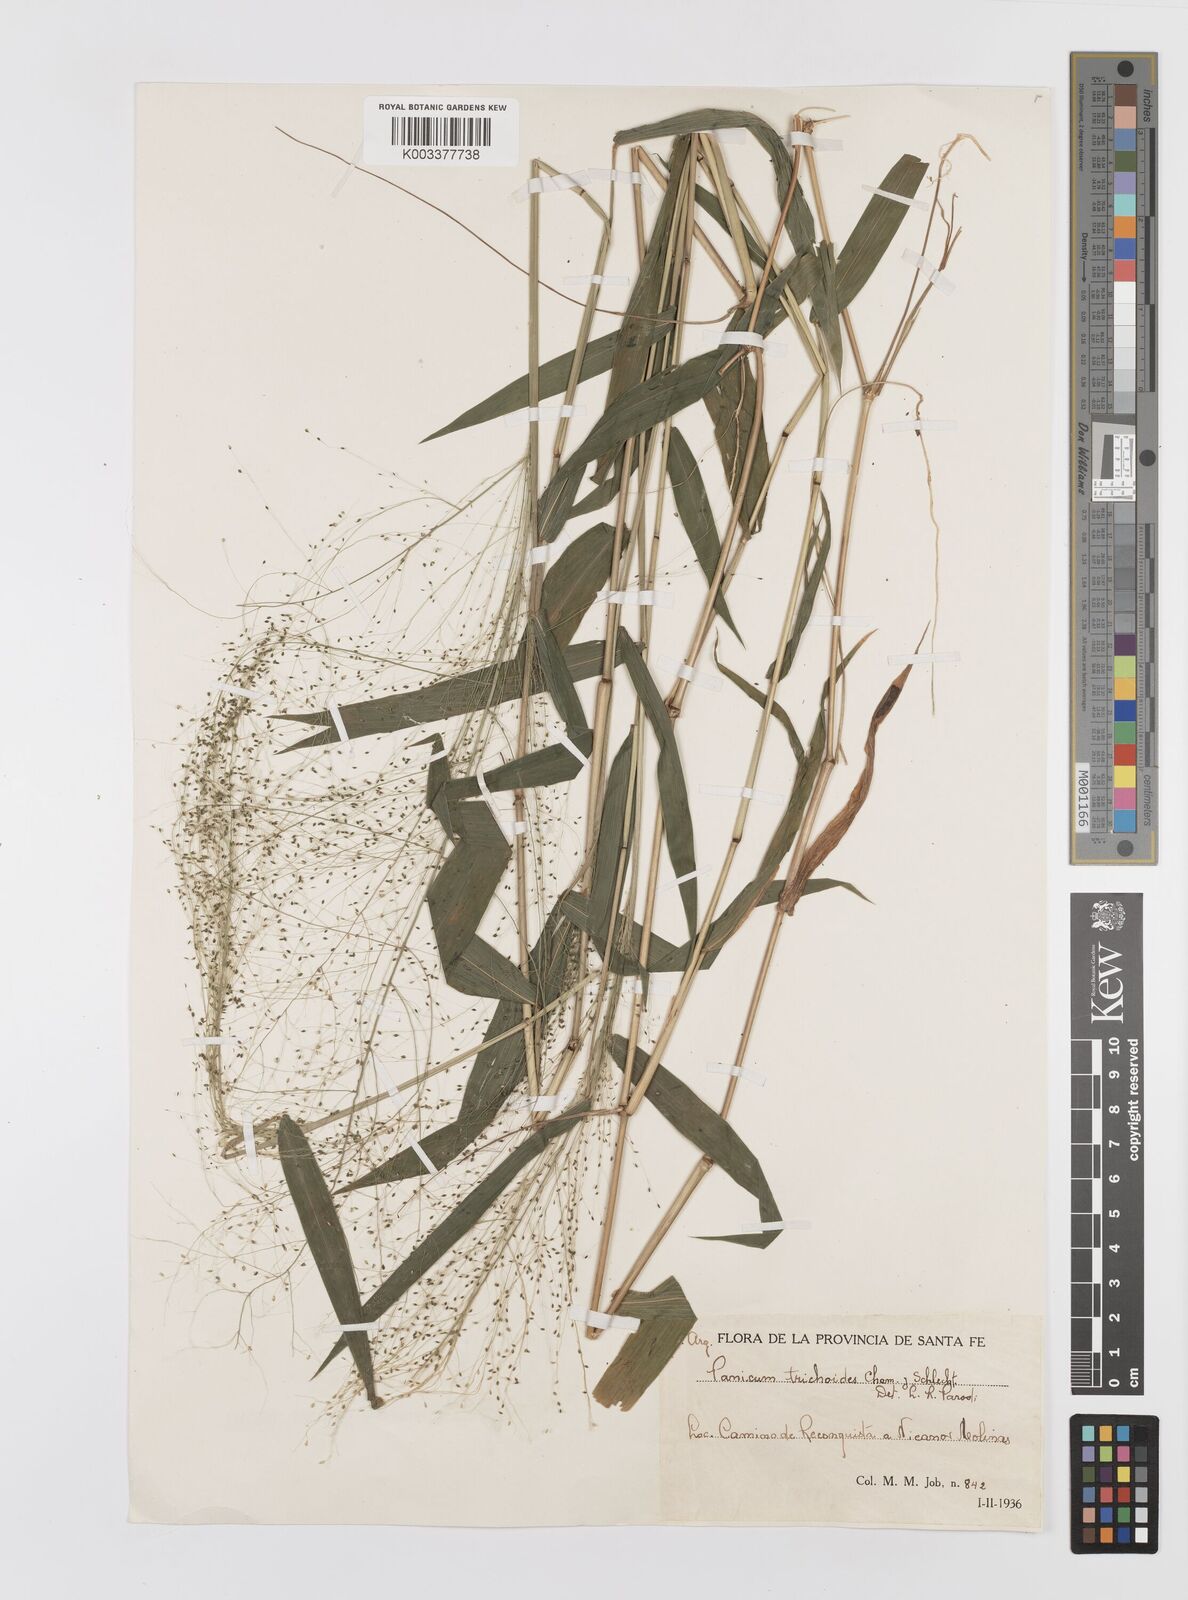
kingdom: Plantae
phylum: Tracheophyta
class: Liliopsida
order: Poales
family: Poaceae
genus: Panicum
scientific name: Panicum trichanthum
